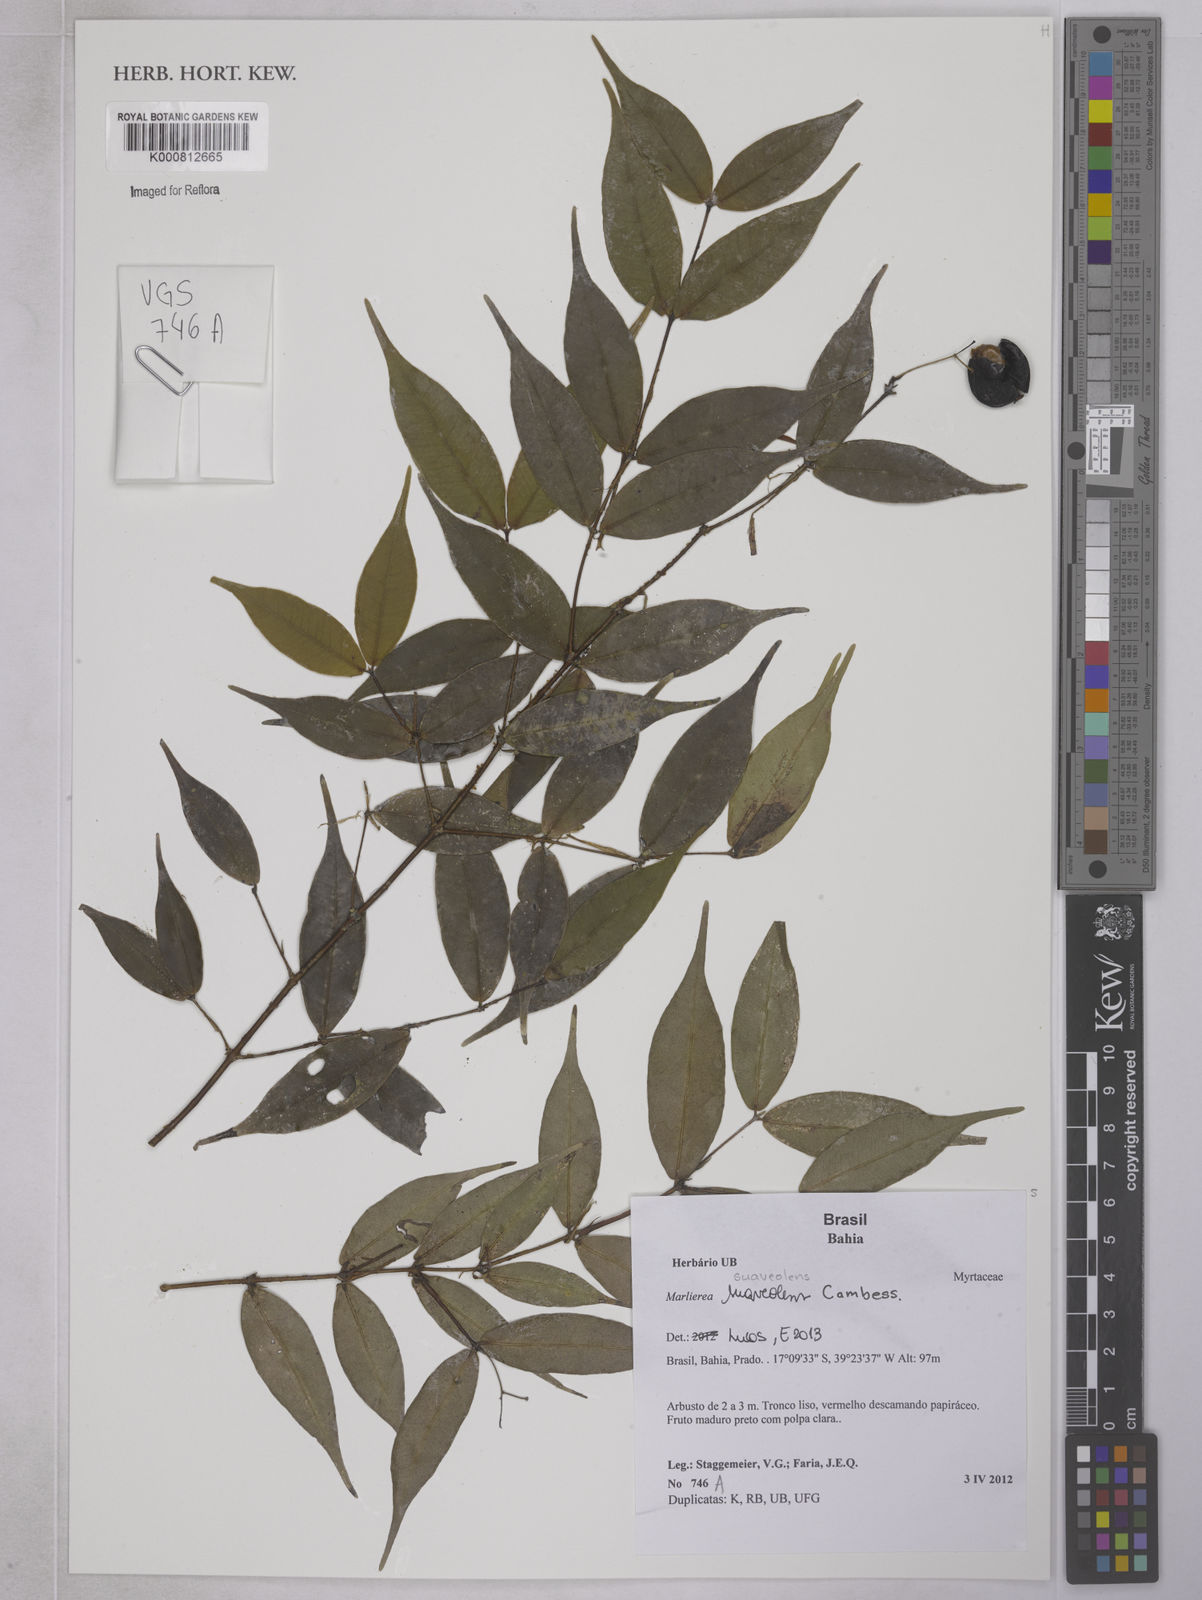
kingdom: Plantae
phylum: Tracheophyta
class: Magnoliopsida
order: Myrtales
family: Myrtaceae
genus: Myrcia
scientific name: Myrcia neosuaveolens
